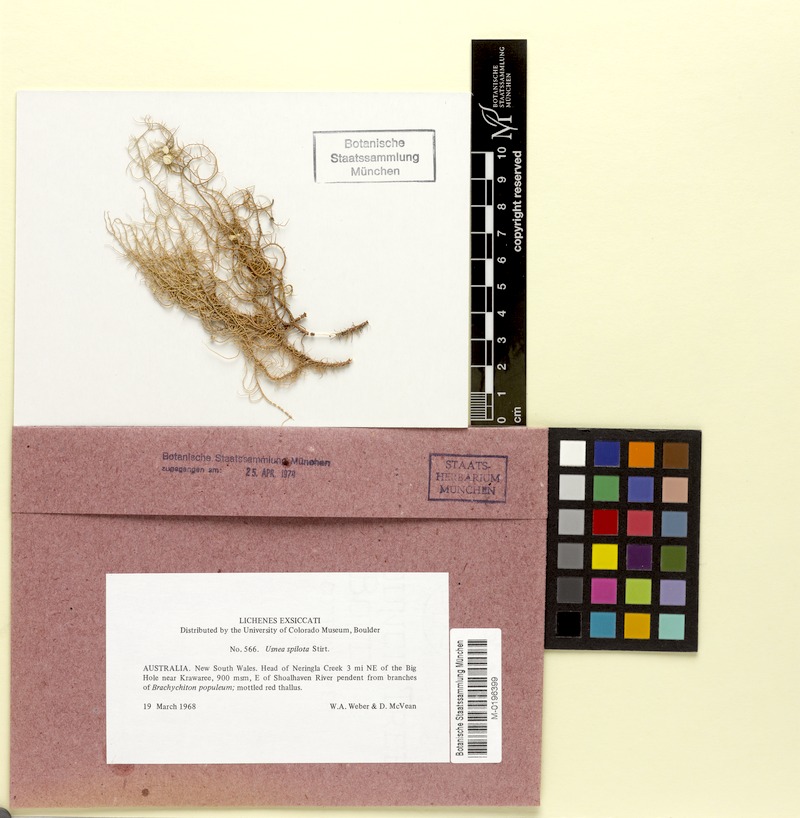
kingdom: Fungi
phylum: Ascomycota
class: Lecanoromycetes
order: Lecanorales
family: Parmeliaceae
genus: Usnea
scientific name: Usnea rubicunda
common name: Red beard lichen
